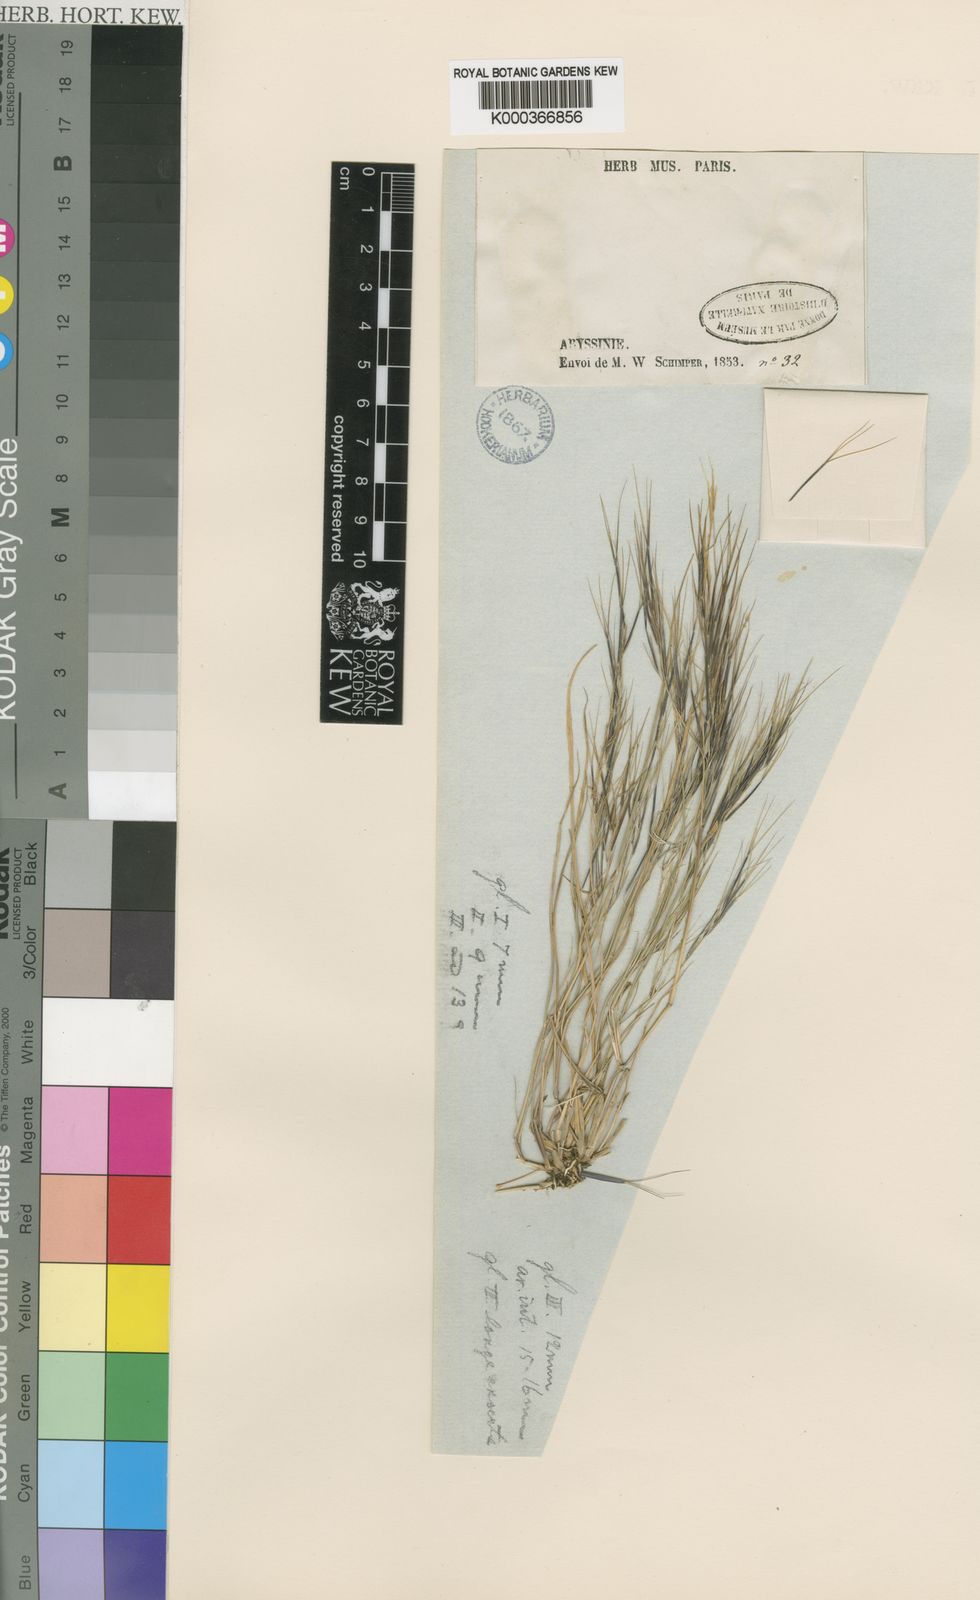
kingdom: Plantae
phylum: Tracheophyta
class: Liliopsida
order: Poales
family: Poaceae
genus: Aristida
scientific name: Aristida adscensionis
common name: Sixweeks threeawn
